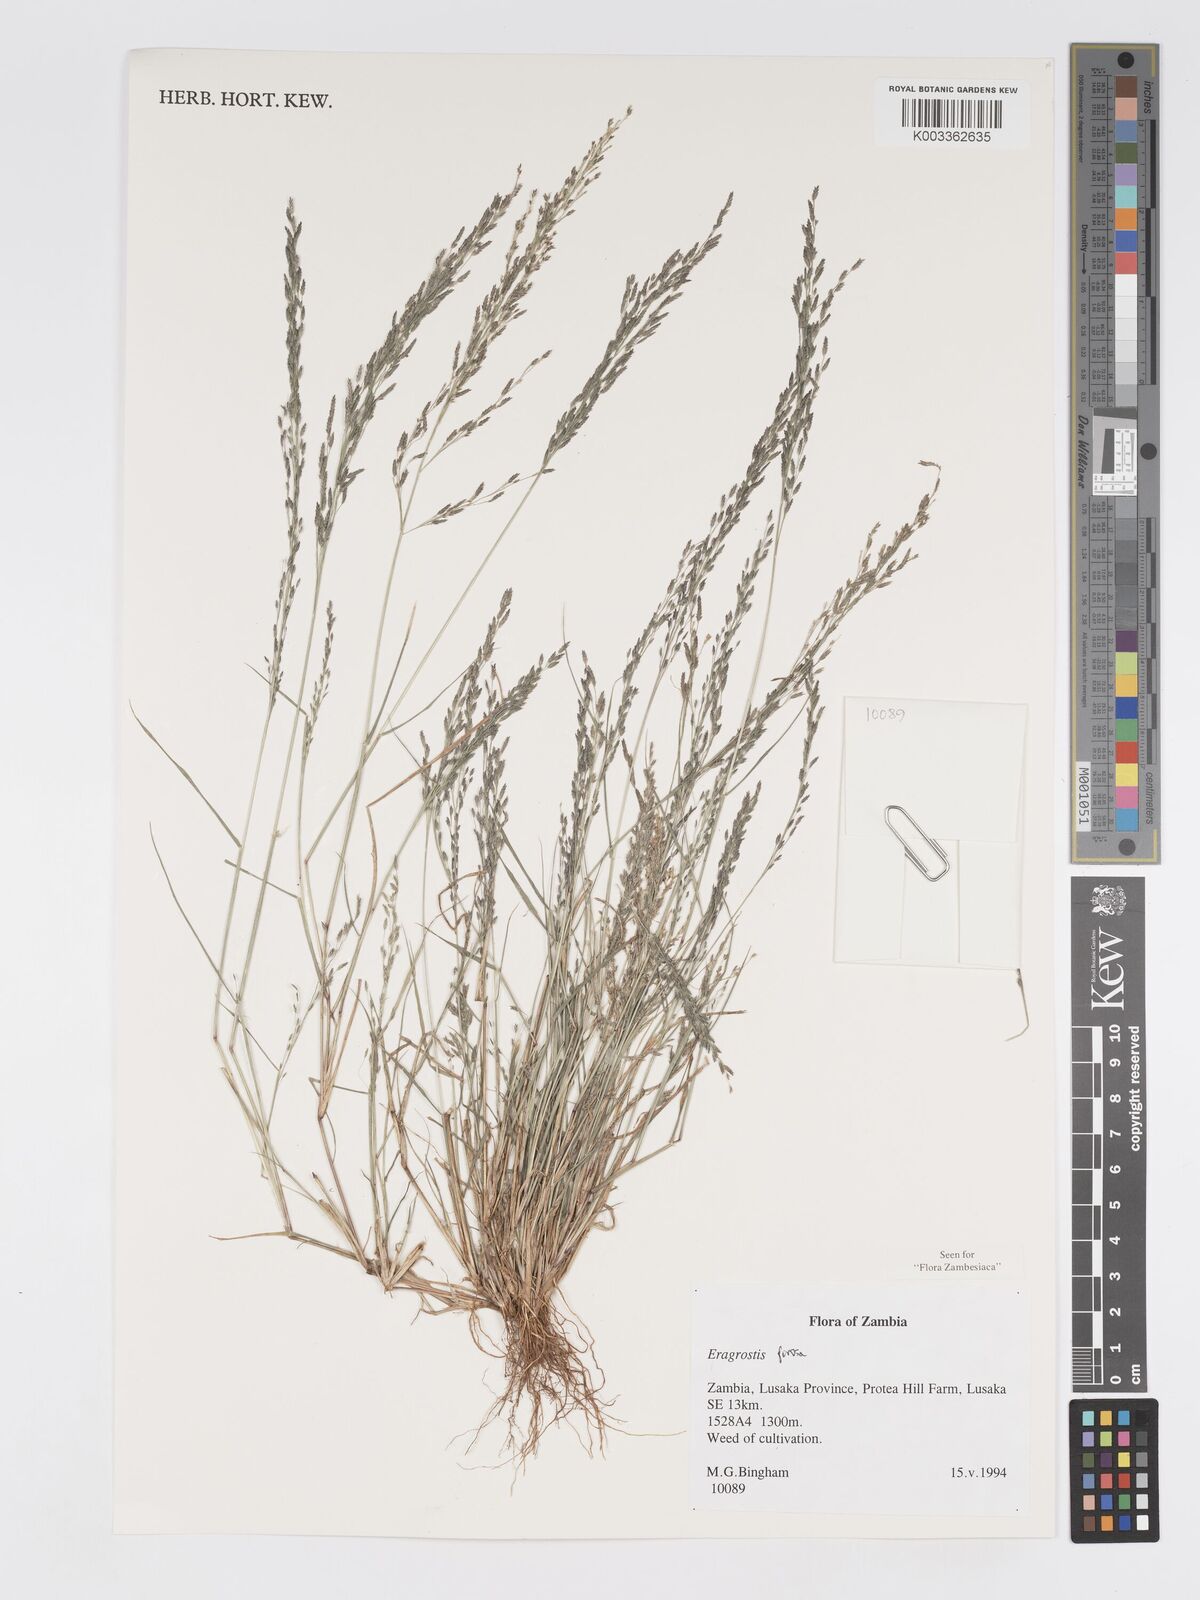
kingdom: Plantae
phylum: Tracheophyta
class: Liliopsida
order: Poales
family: Poaceae
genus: Eragrostis
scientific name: Eragrostis porosa
